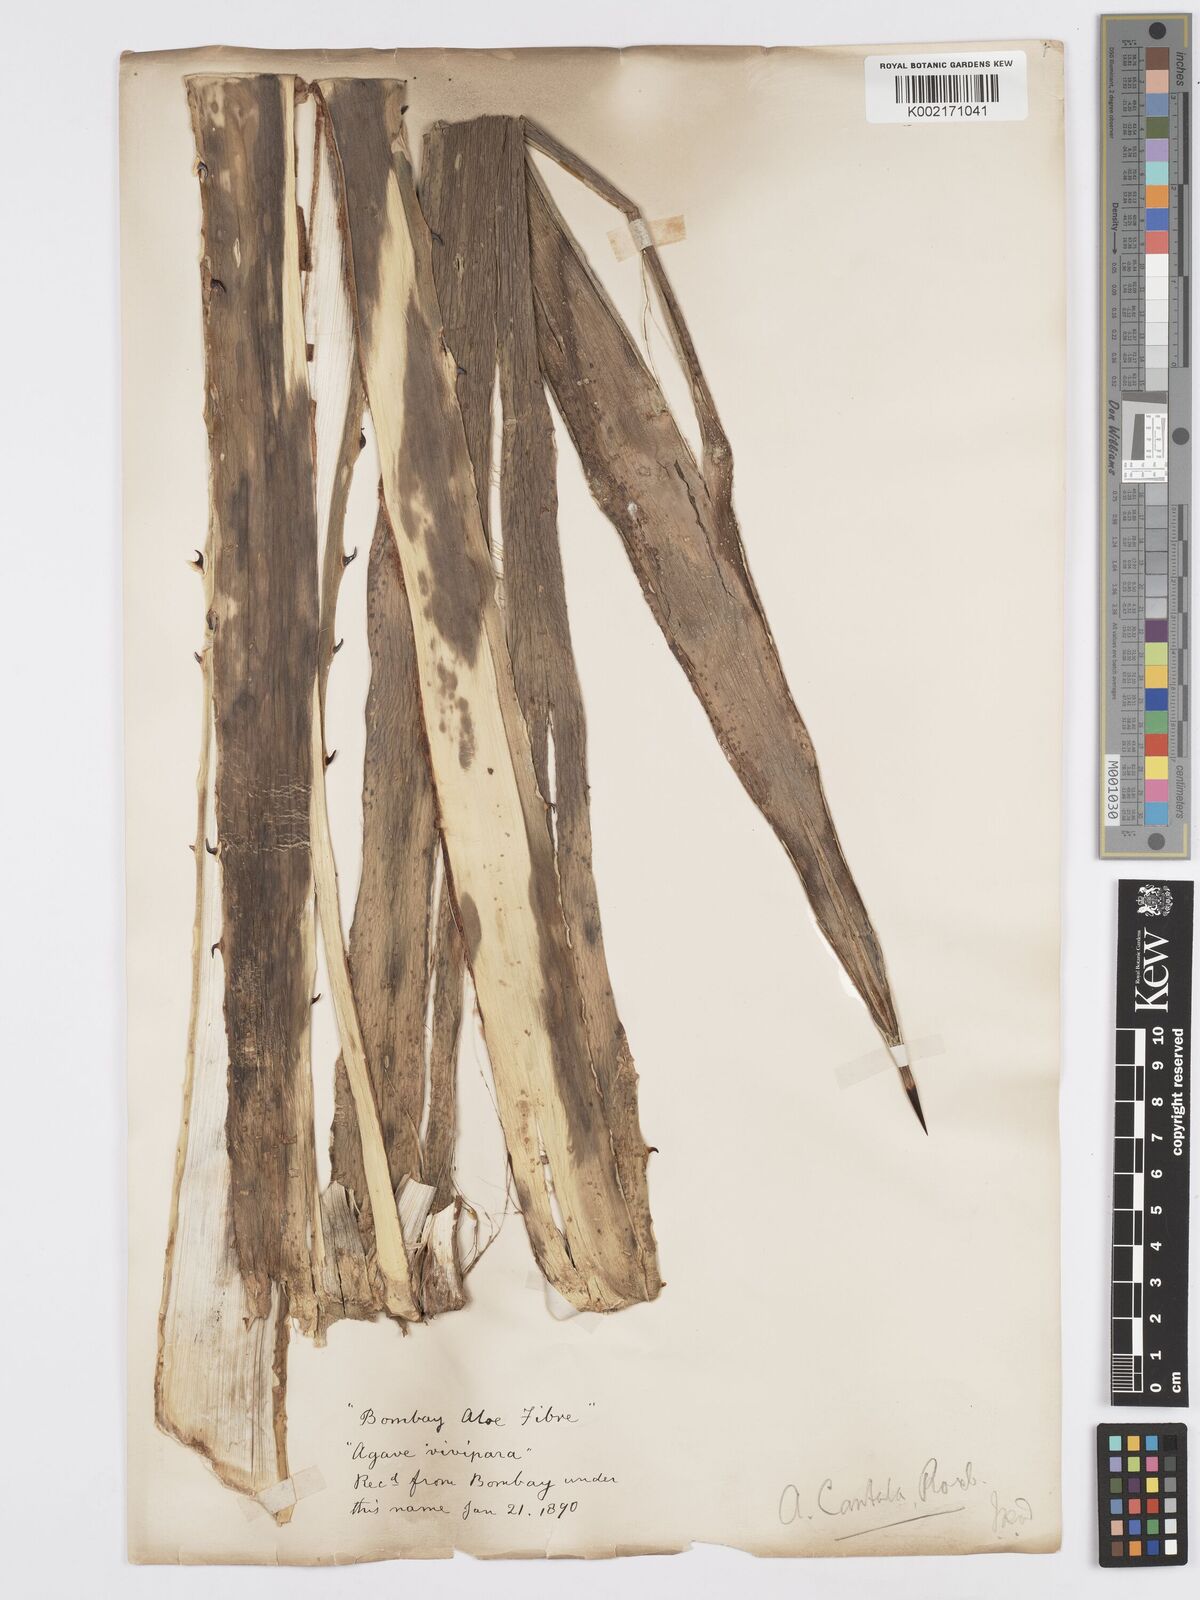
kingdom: Plantae
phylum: Tracheophyta
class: Liliopsida
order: Asparagales
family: Asparagaceae
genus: Agave
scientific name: Agave vivipara
